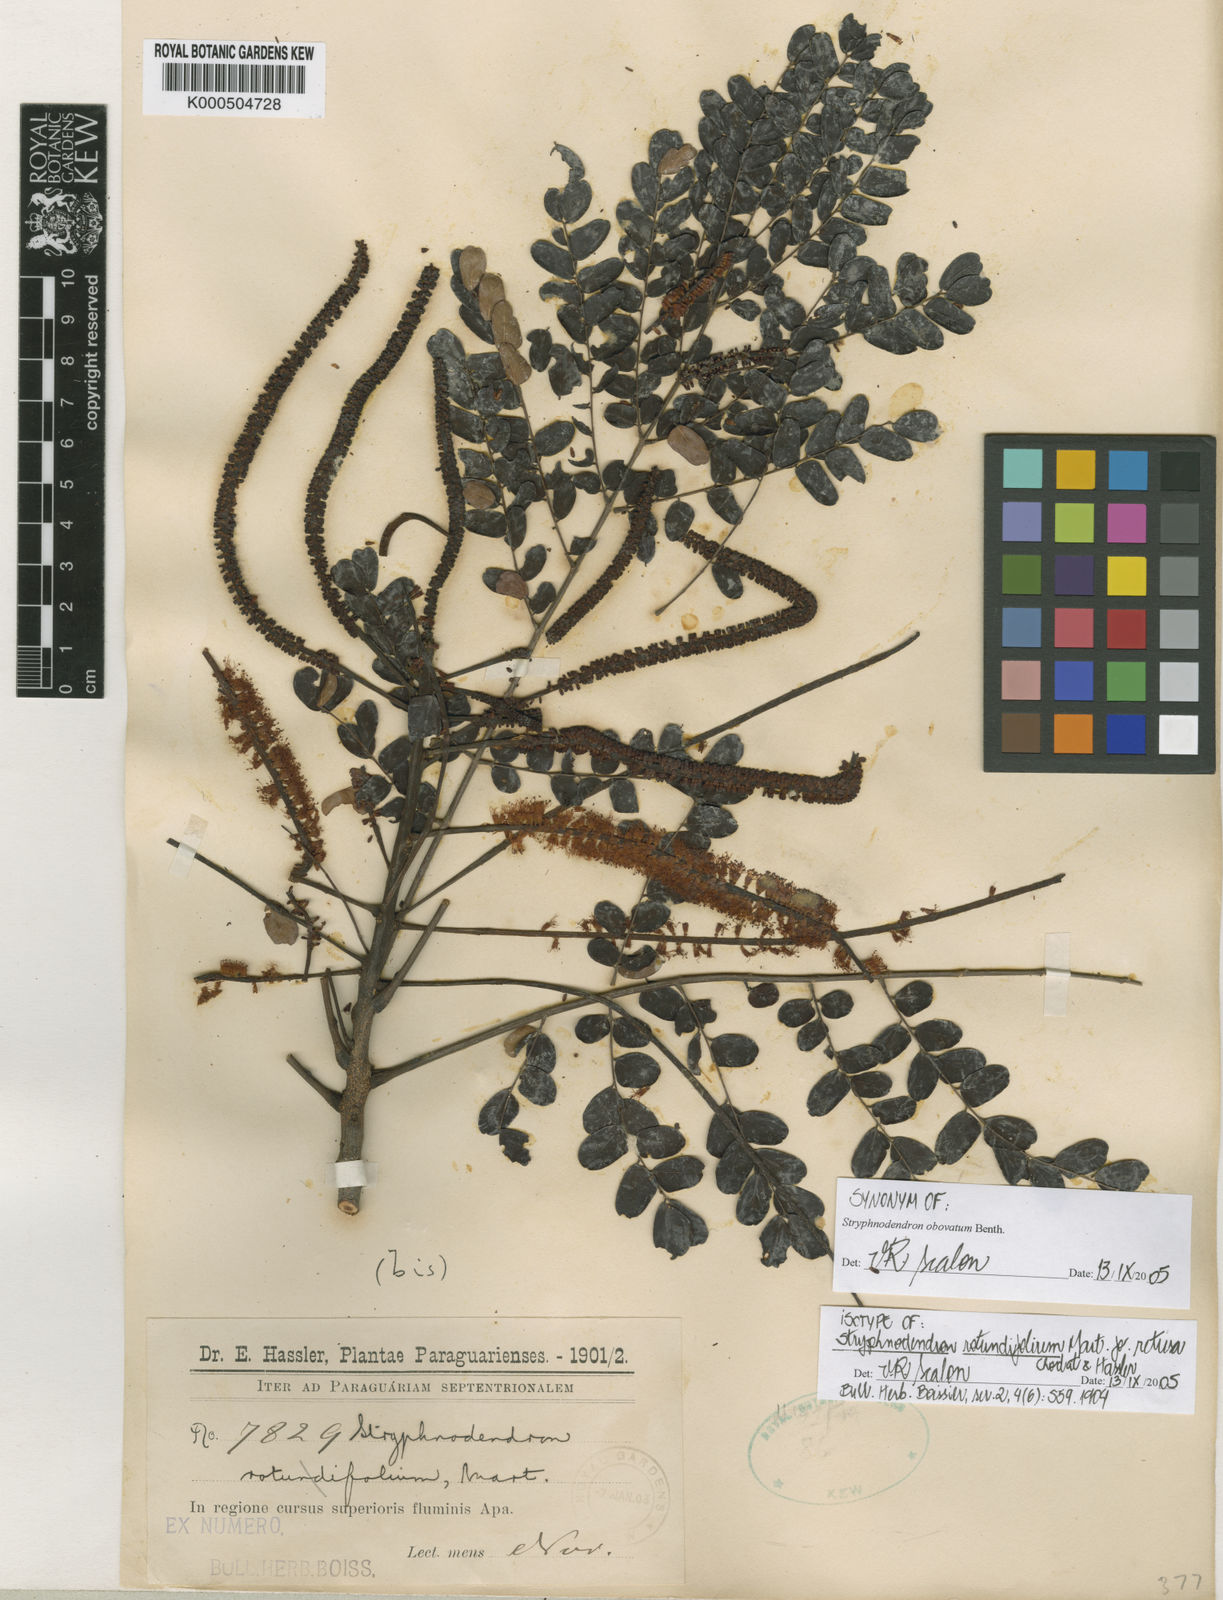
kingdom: Plantae
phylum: Tracheophyta
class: Magnoliopsida
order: Fabales
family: Fabaceae
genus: Stryphnodendron
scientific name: Stryphnodendron rotundifolium
